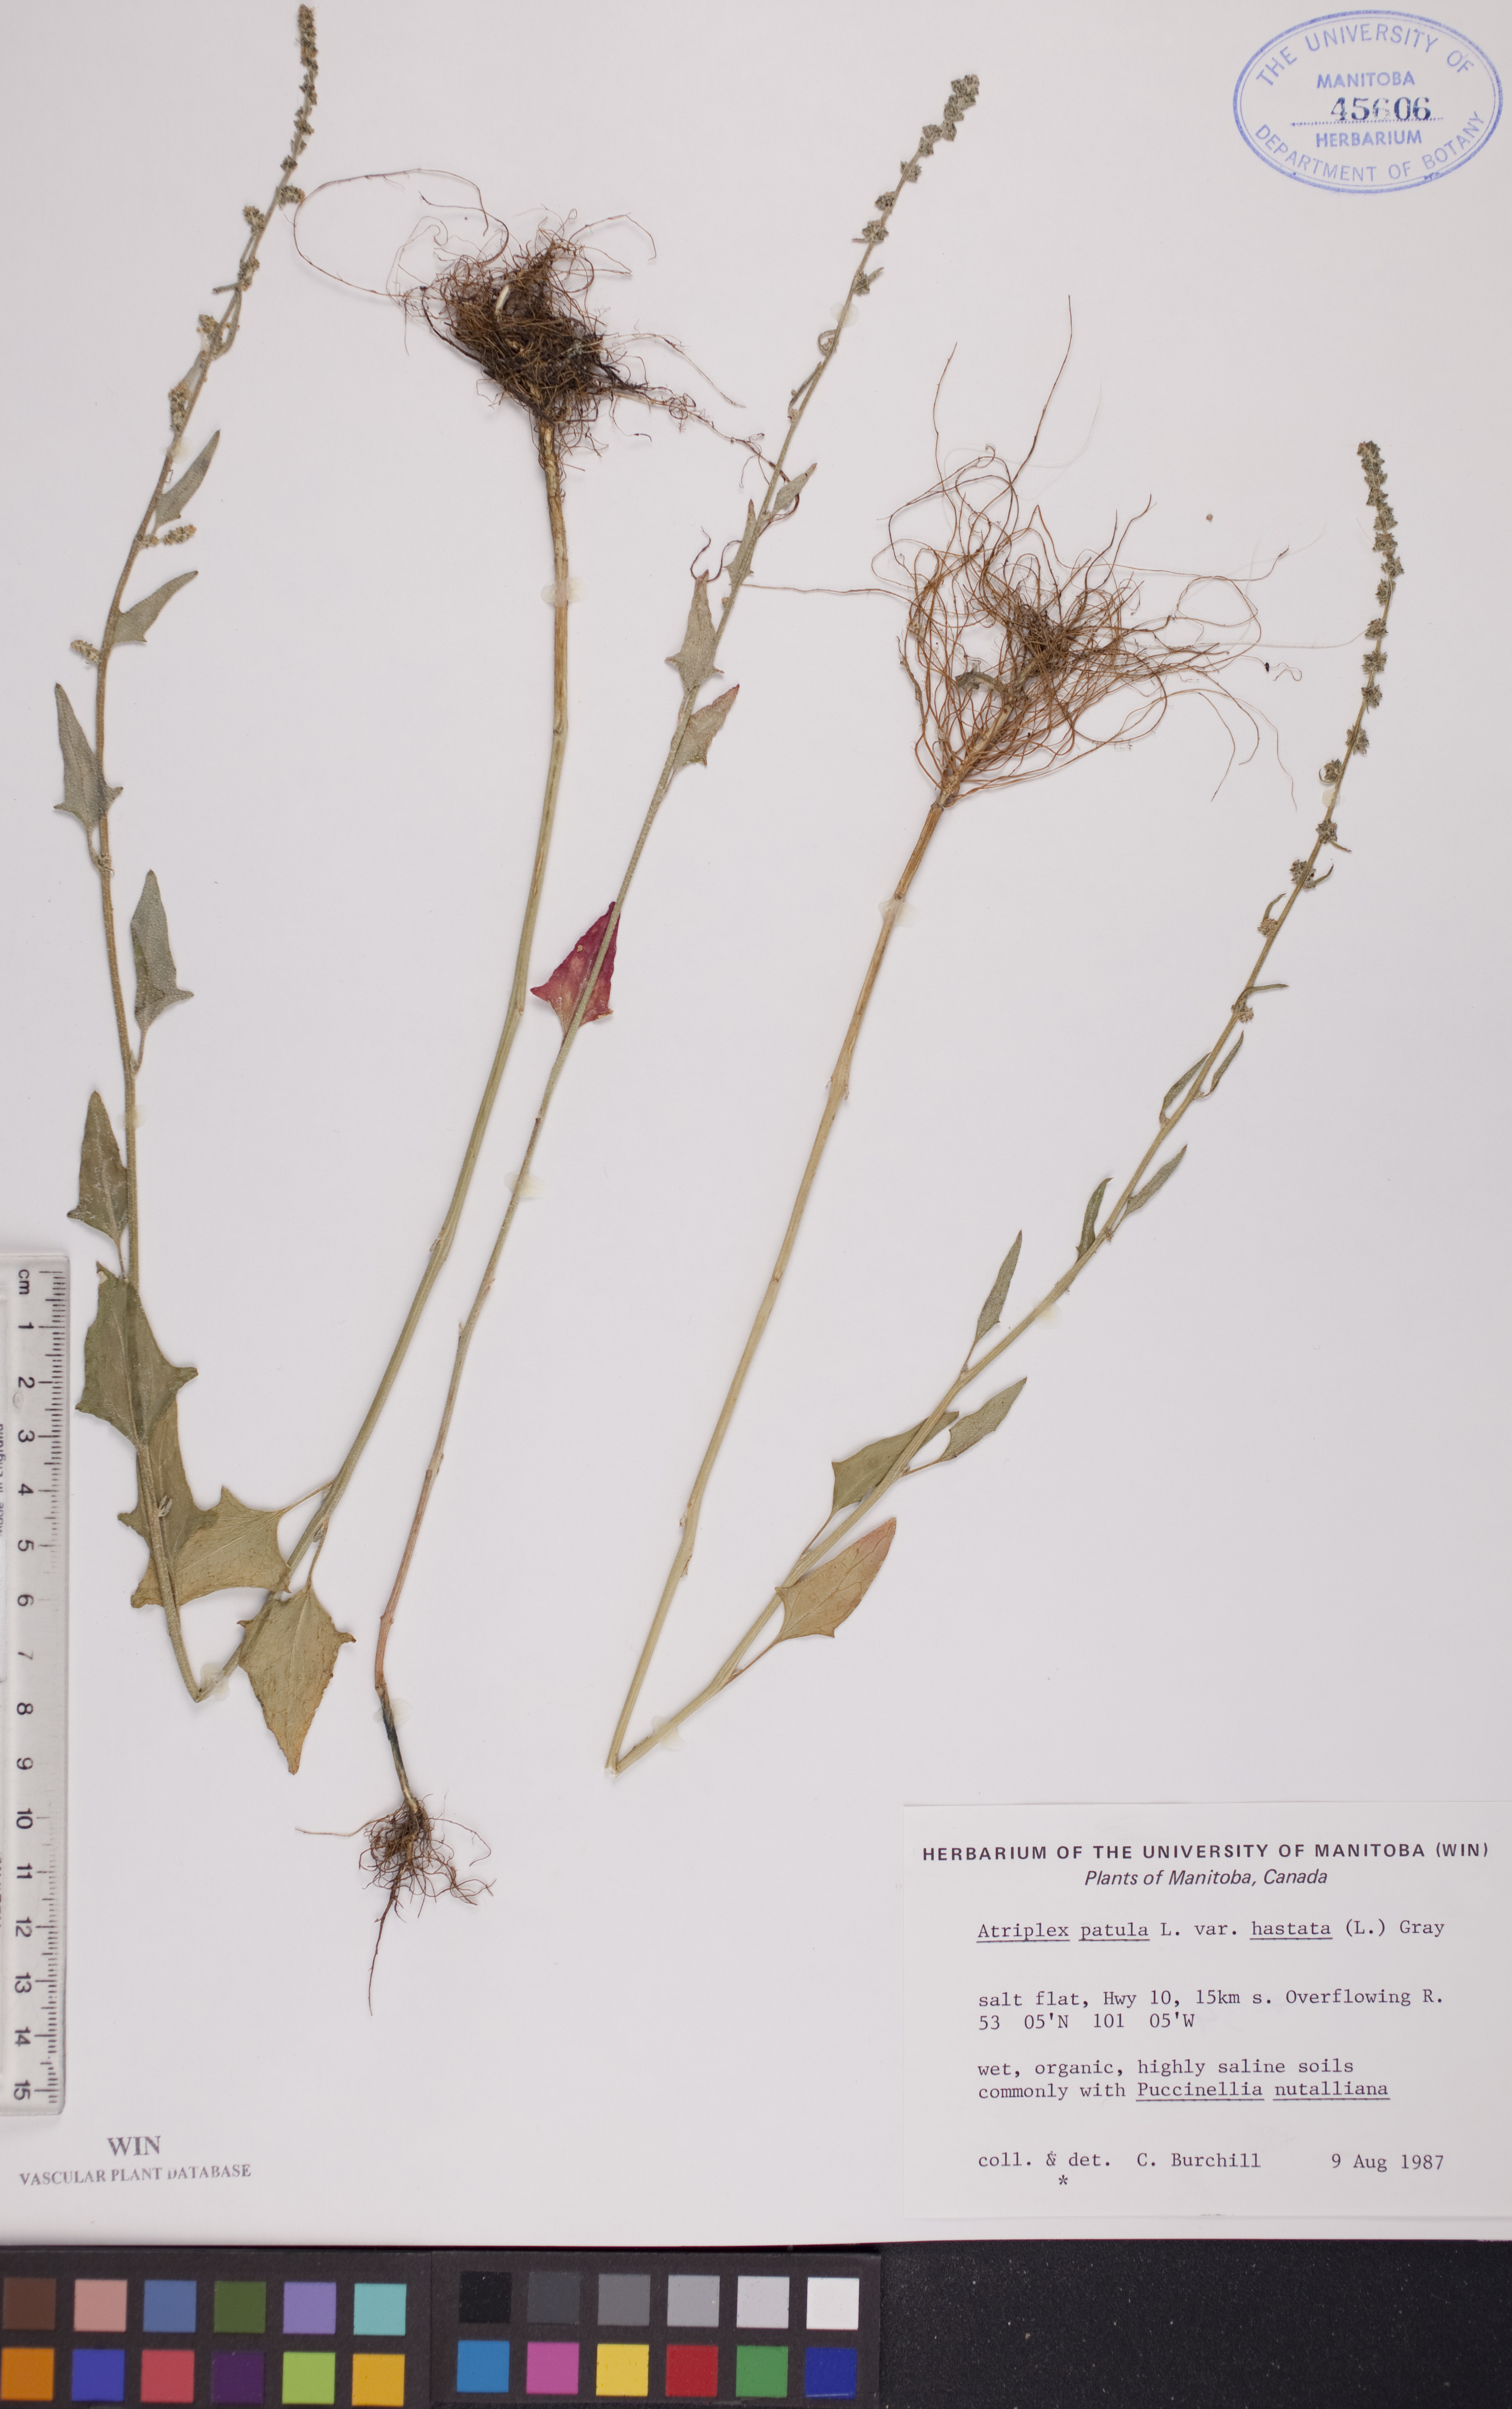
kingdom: Plantae
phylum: Tracheophyta
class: Magnoliopsida
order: Caryophyllales
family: Amaranthaceae
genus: Atriplex
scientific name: Atriplex
